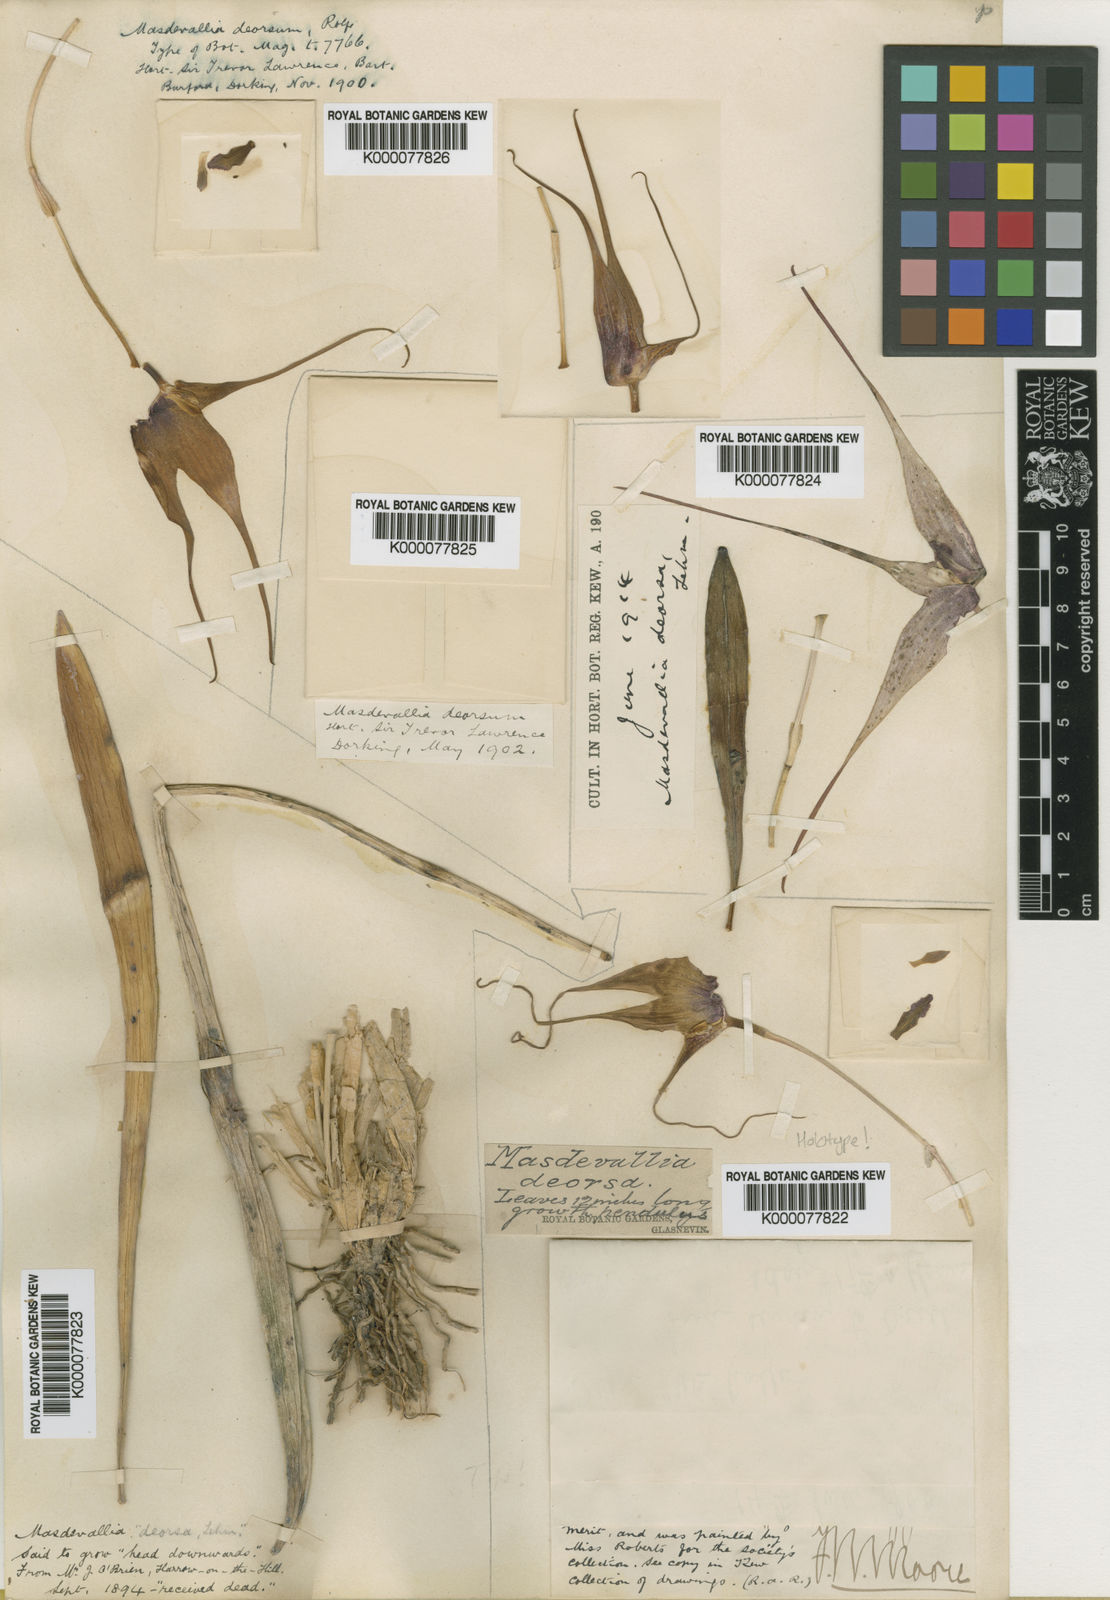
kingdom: Plantae
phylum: Tracheophyta
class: Liliopsida
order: Asparagales
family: Orchidaceae
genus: Masdevallia
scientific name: Masdevallia caesia
